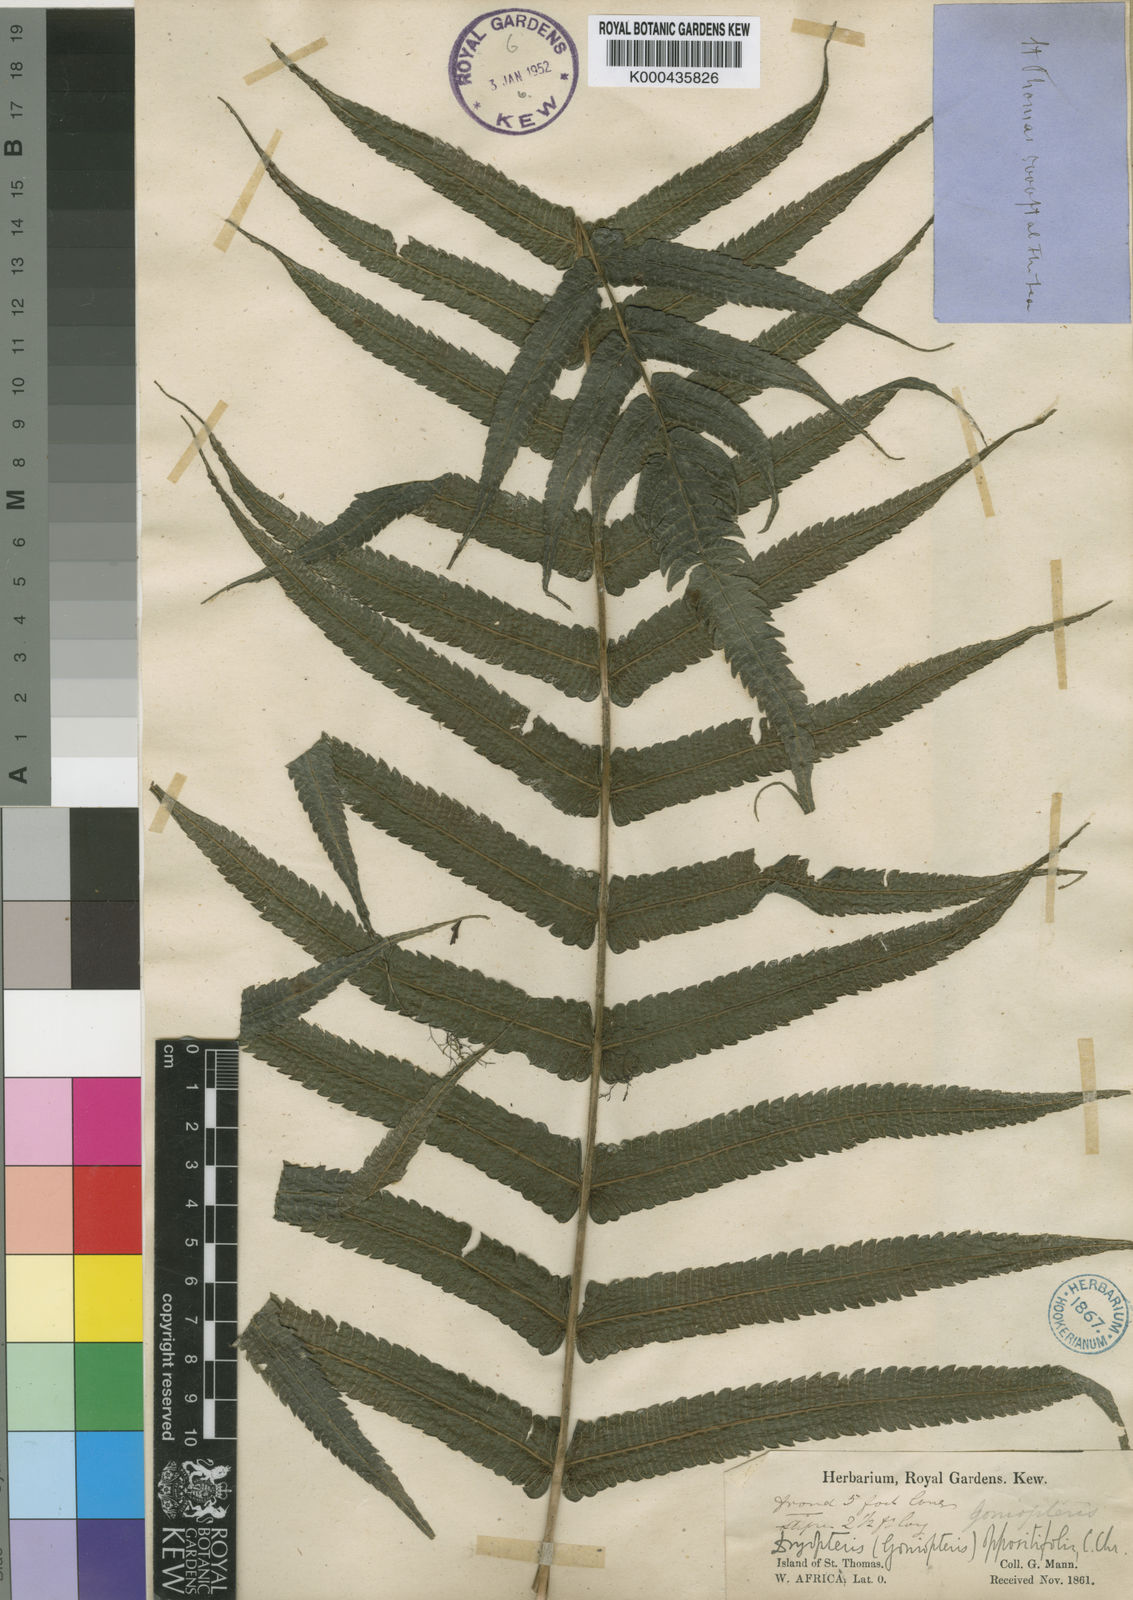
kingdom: Plantae
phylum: Tracheophyta
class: Polypodiopsida
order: Polypodiales
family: Thelypteridaceae
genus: Menisorus
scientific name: Menisorus oppositifolius
